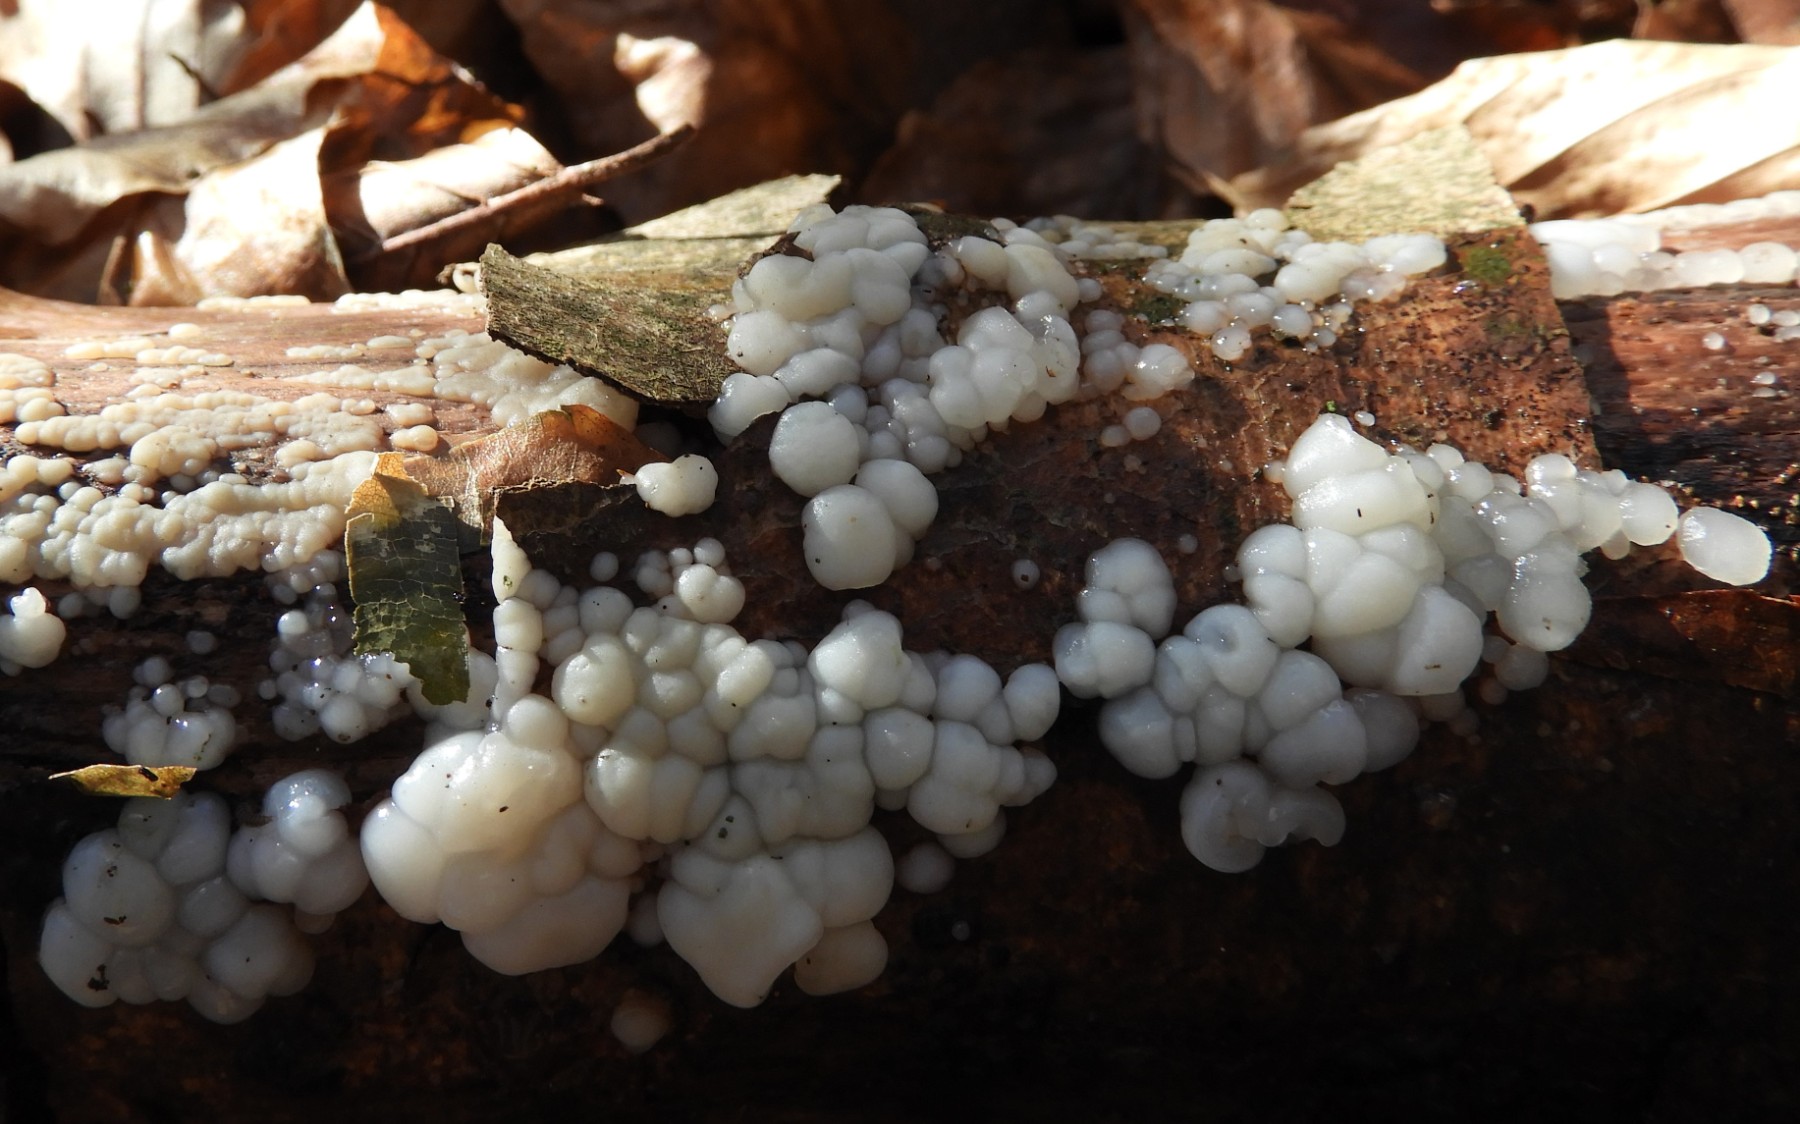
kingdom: Fungi
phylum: Basidiomycota
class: Agaricomycetes
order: Auriculariales
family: Auriculariaceae
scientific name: Auriculariaceae
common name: judasørefamilien
